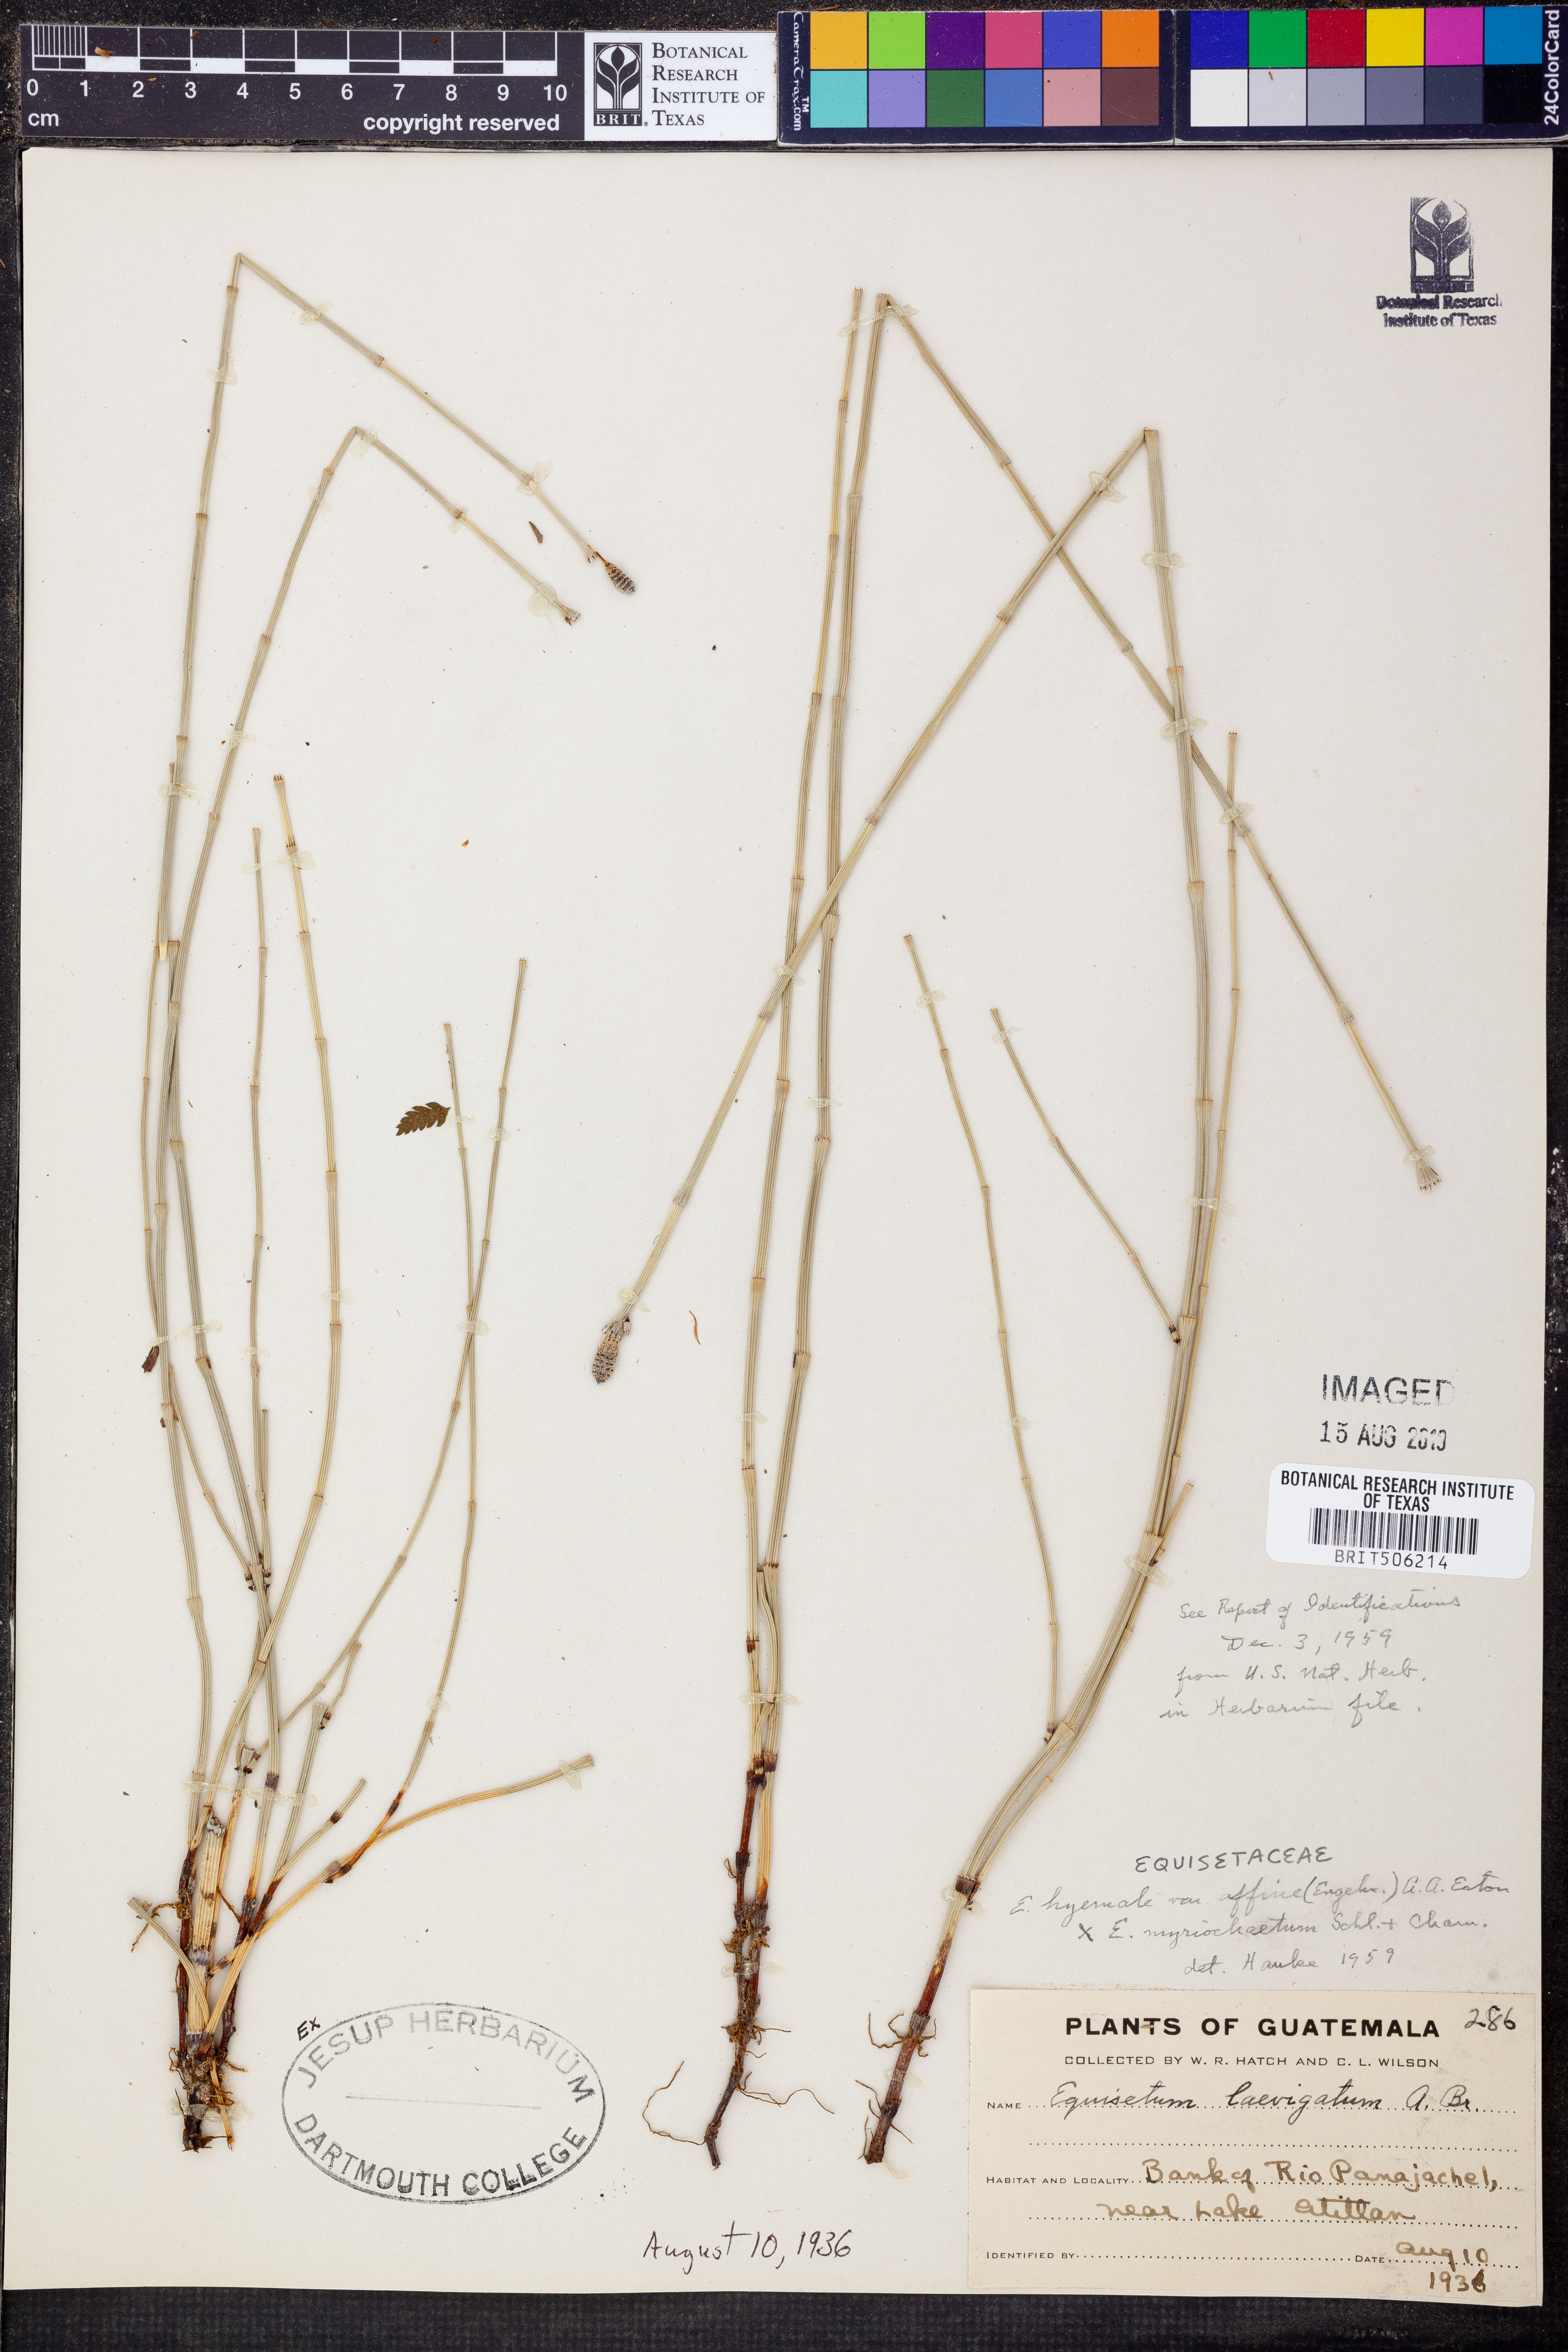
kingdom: Plantae
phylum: Tracheophyta
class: Polypodiopsida
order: Equisetales
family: Equisetaceae
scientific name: Equisetaceae
